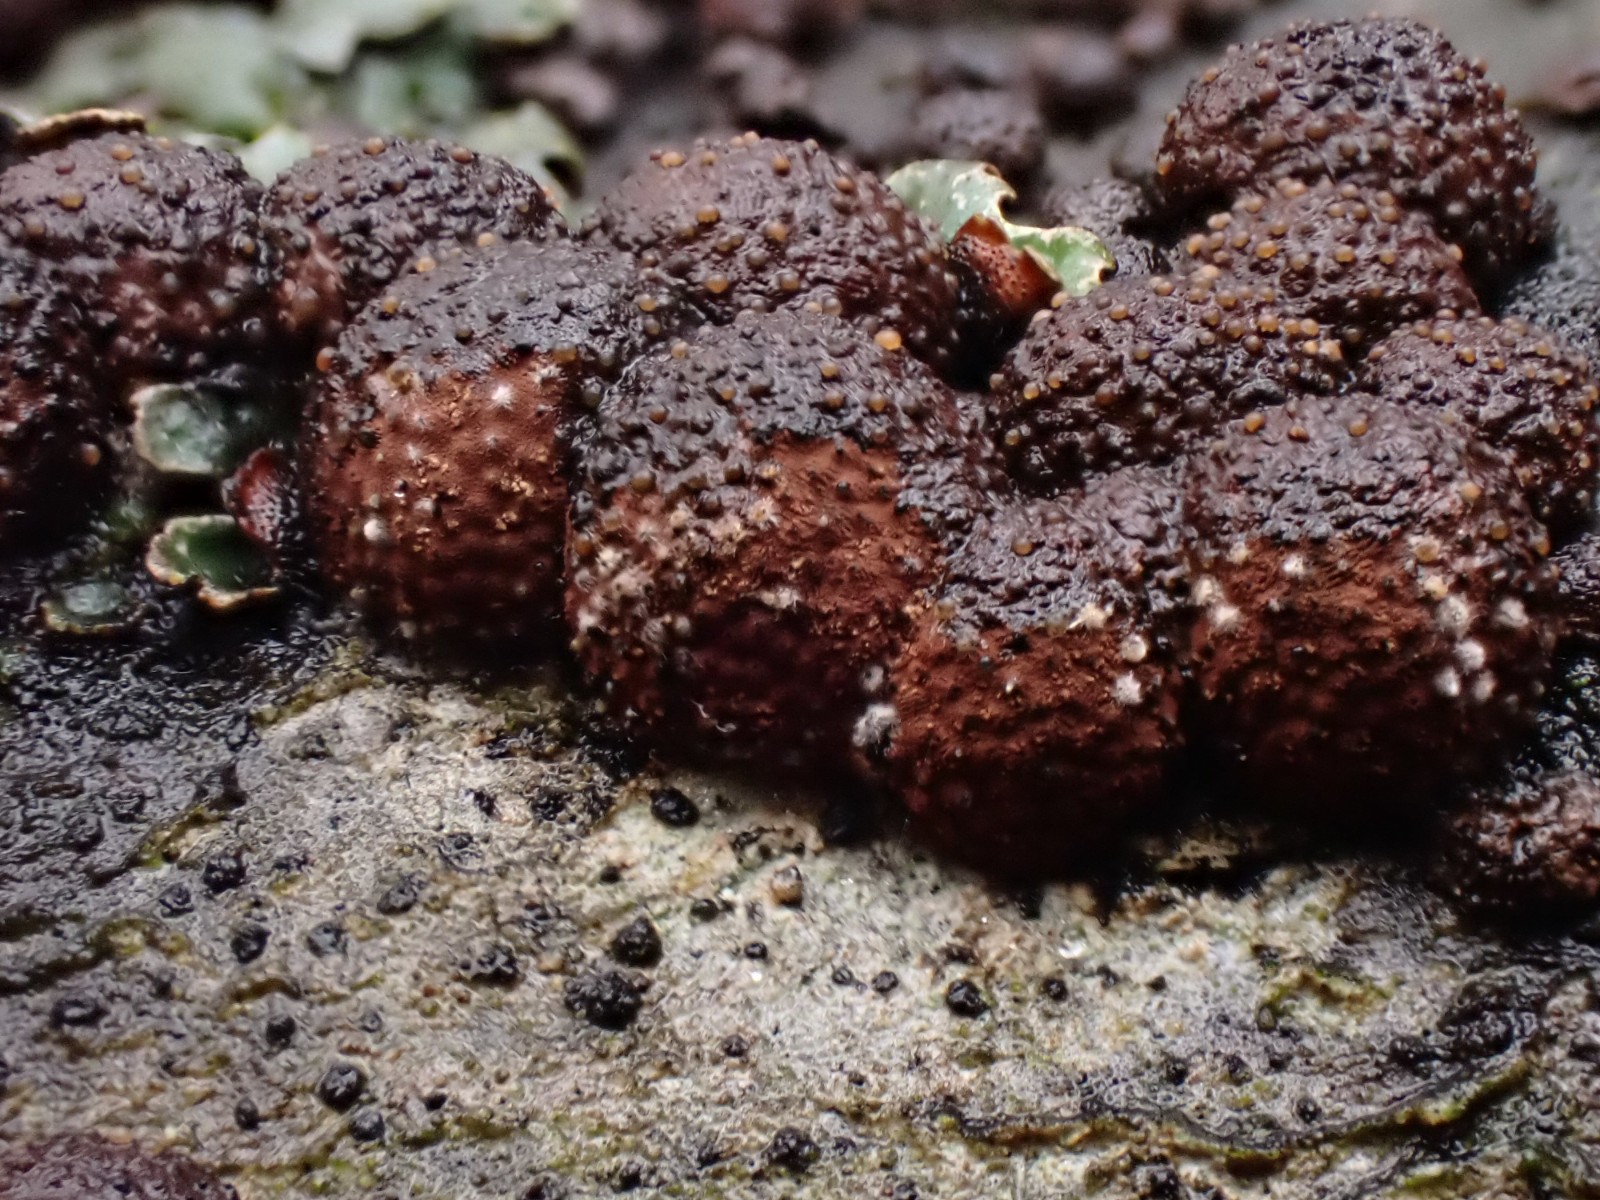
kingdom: Fungi
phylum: Ascomycota
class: Sordariomycetes
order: Hypocreales
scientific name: Hypocreales
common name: kødkerneordenen
